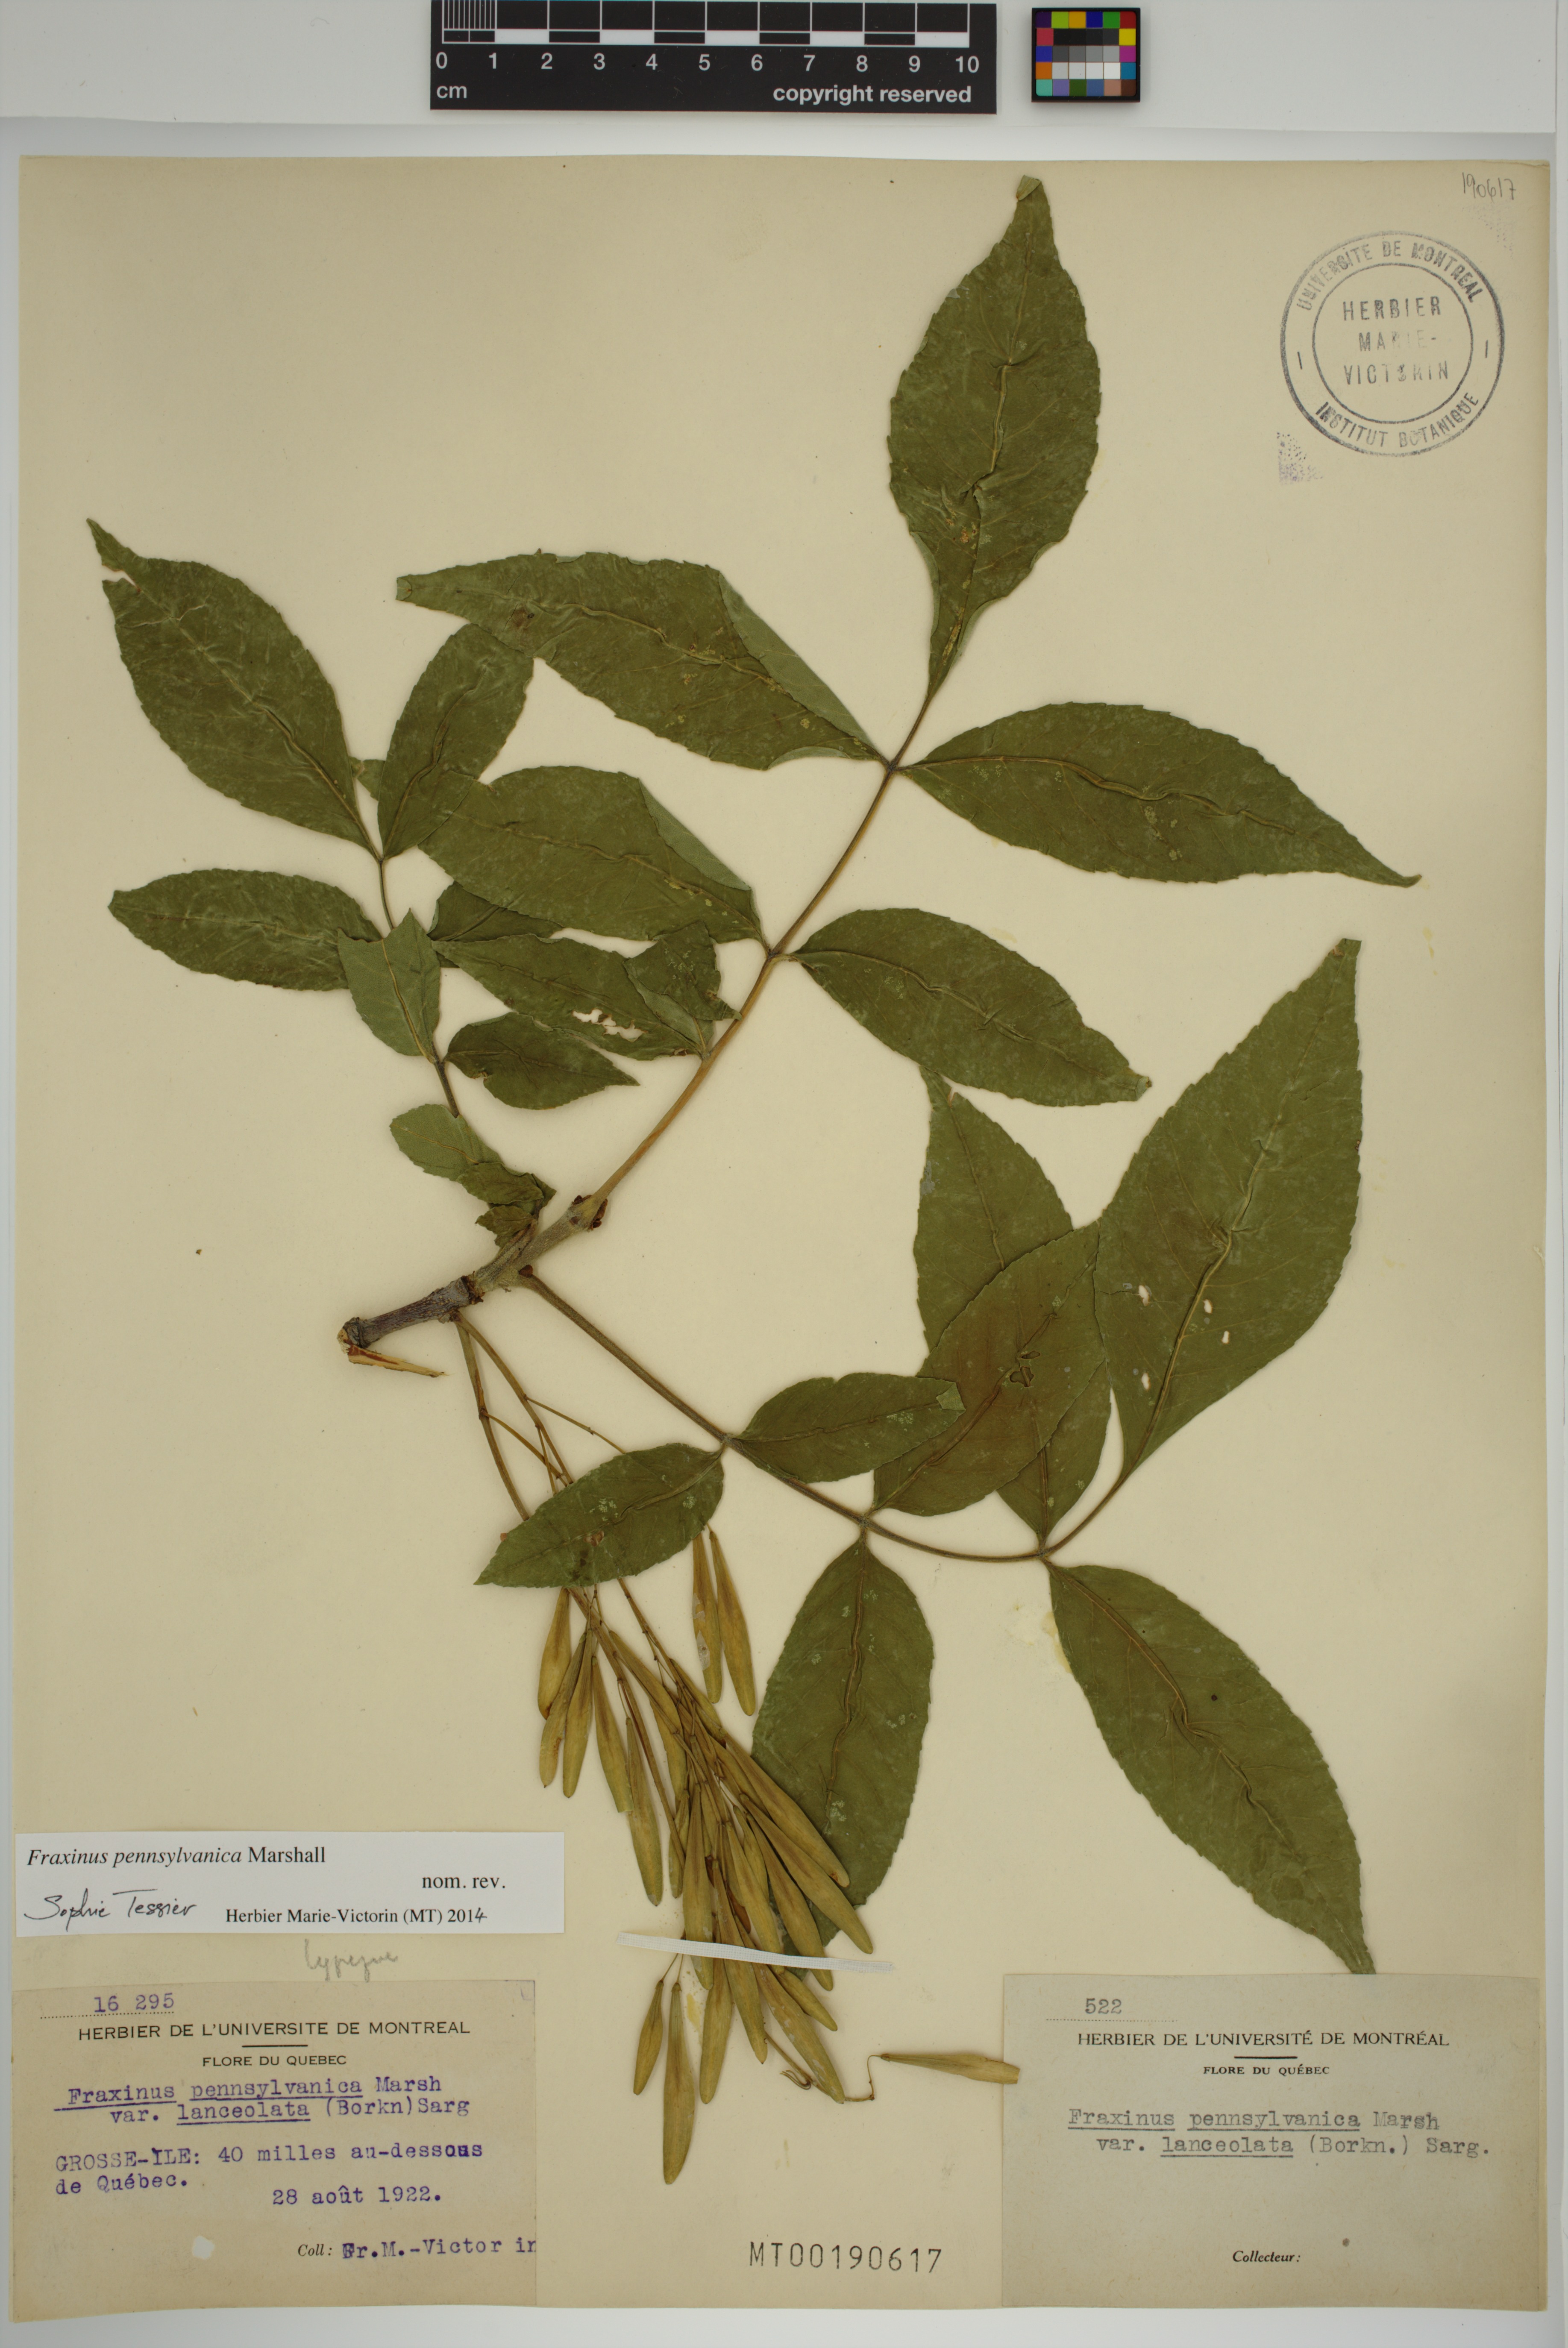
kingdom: Plantae
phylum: Tracheophyta
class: Magnoliopsida
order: Lamiales
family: Oleaceae
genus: Fraxinus
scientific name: Fraxinus pennsylvanica
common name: Green ash
